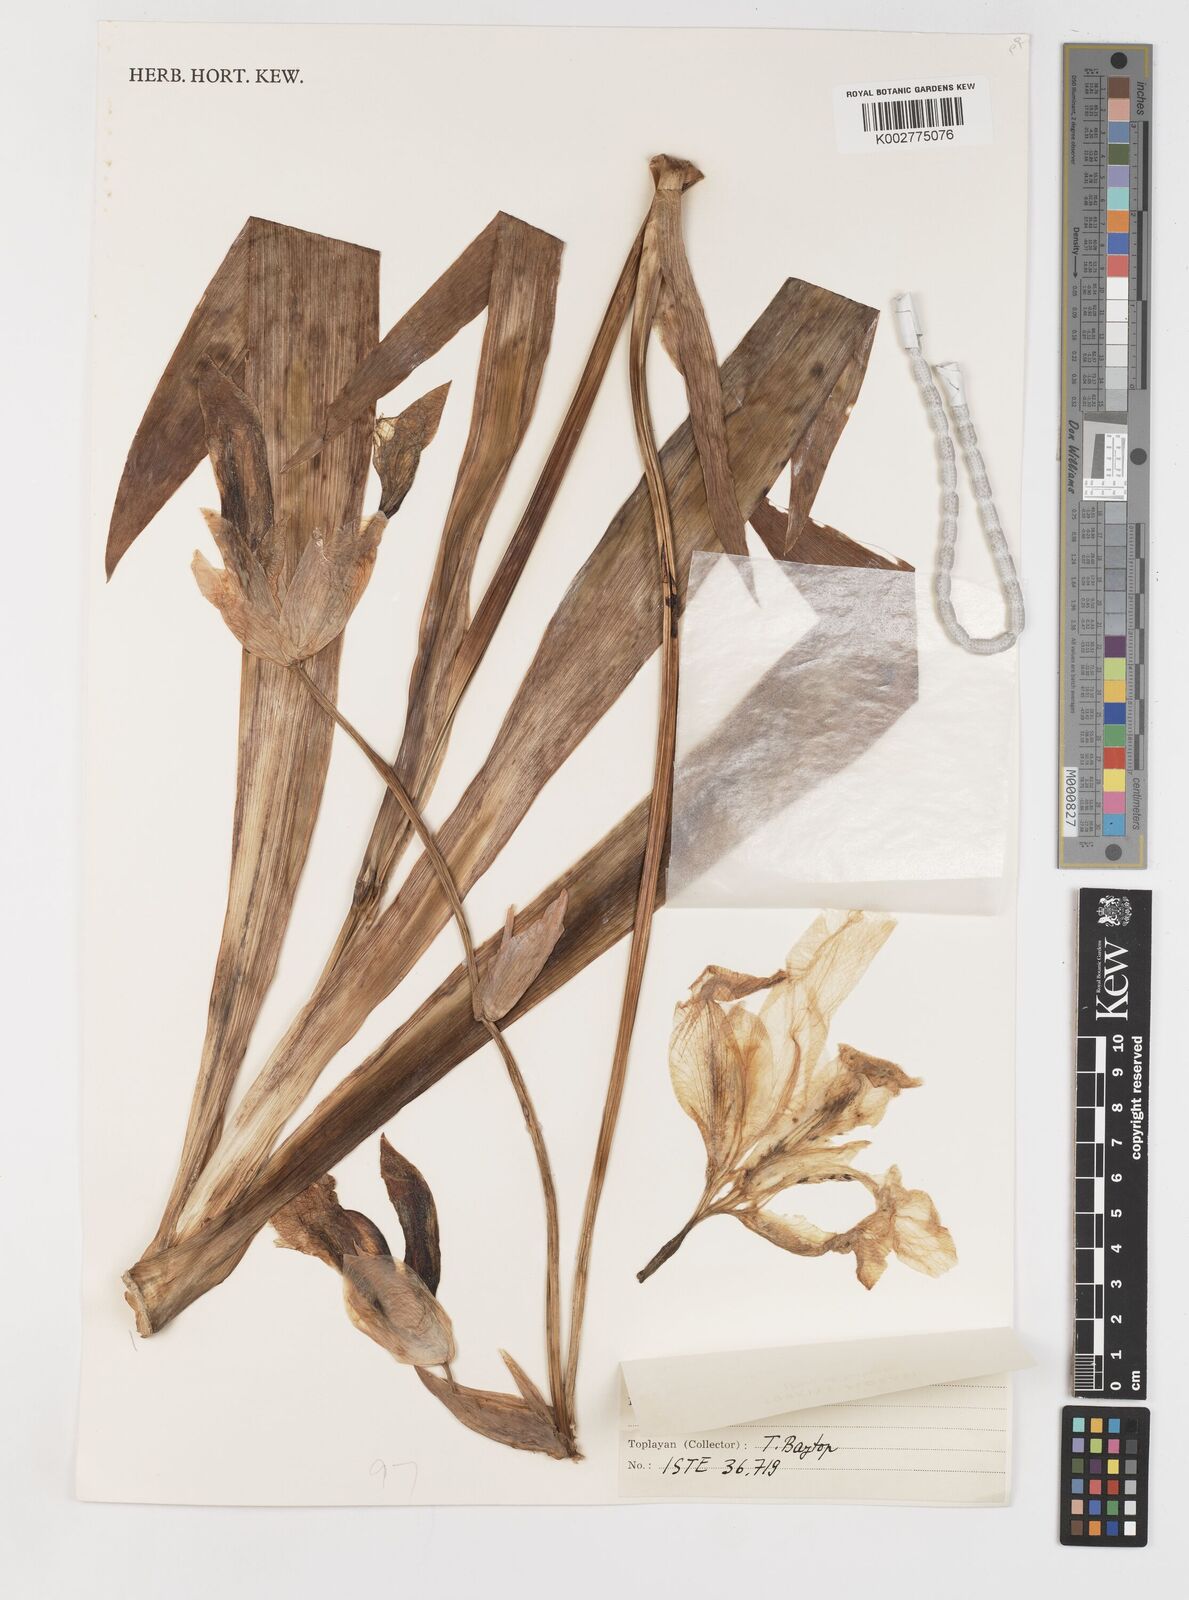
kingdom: Plantae
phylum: Tracheophyta
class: Liliopsida
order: Asparagales
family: Iridaceae
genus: Iris
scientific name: Iris germanica
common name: German iris
